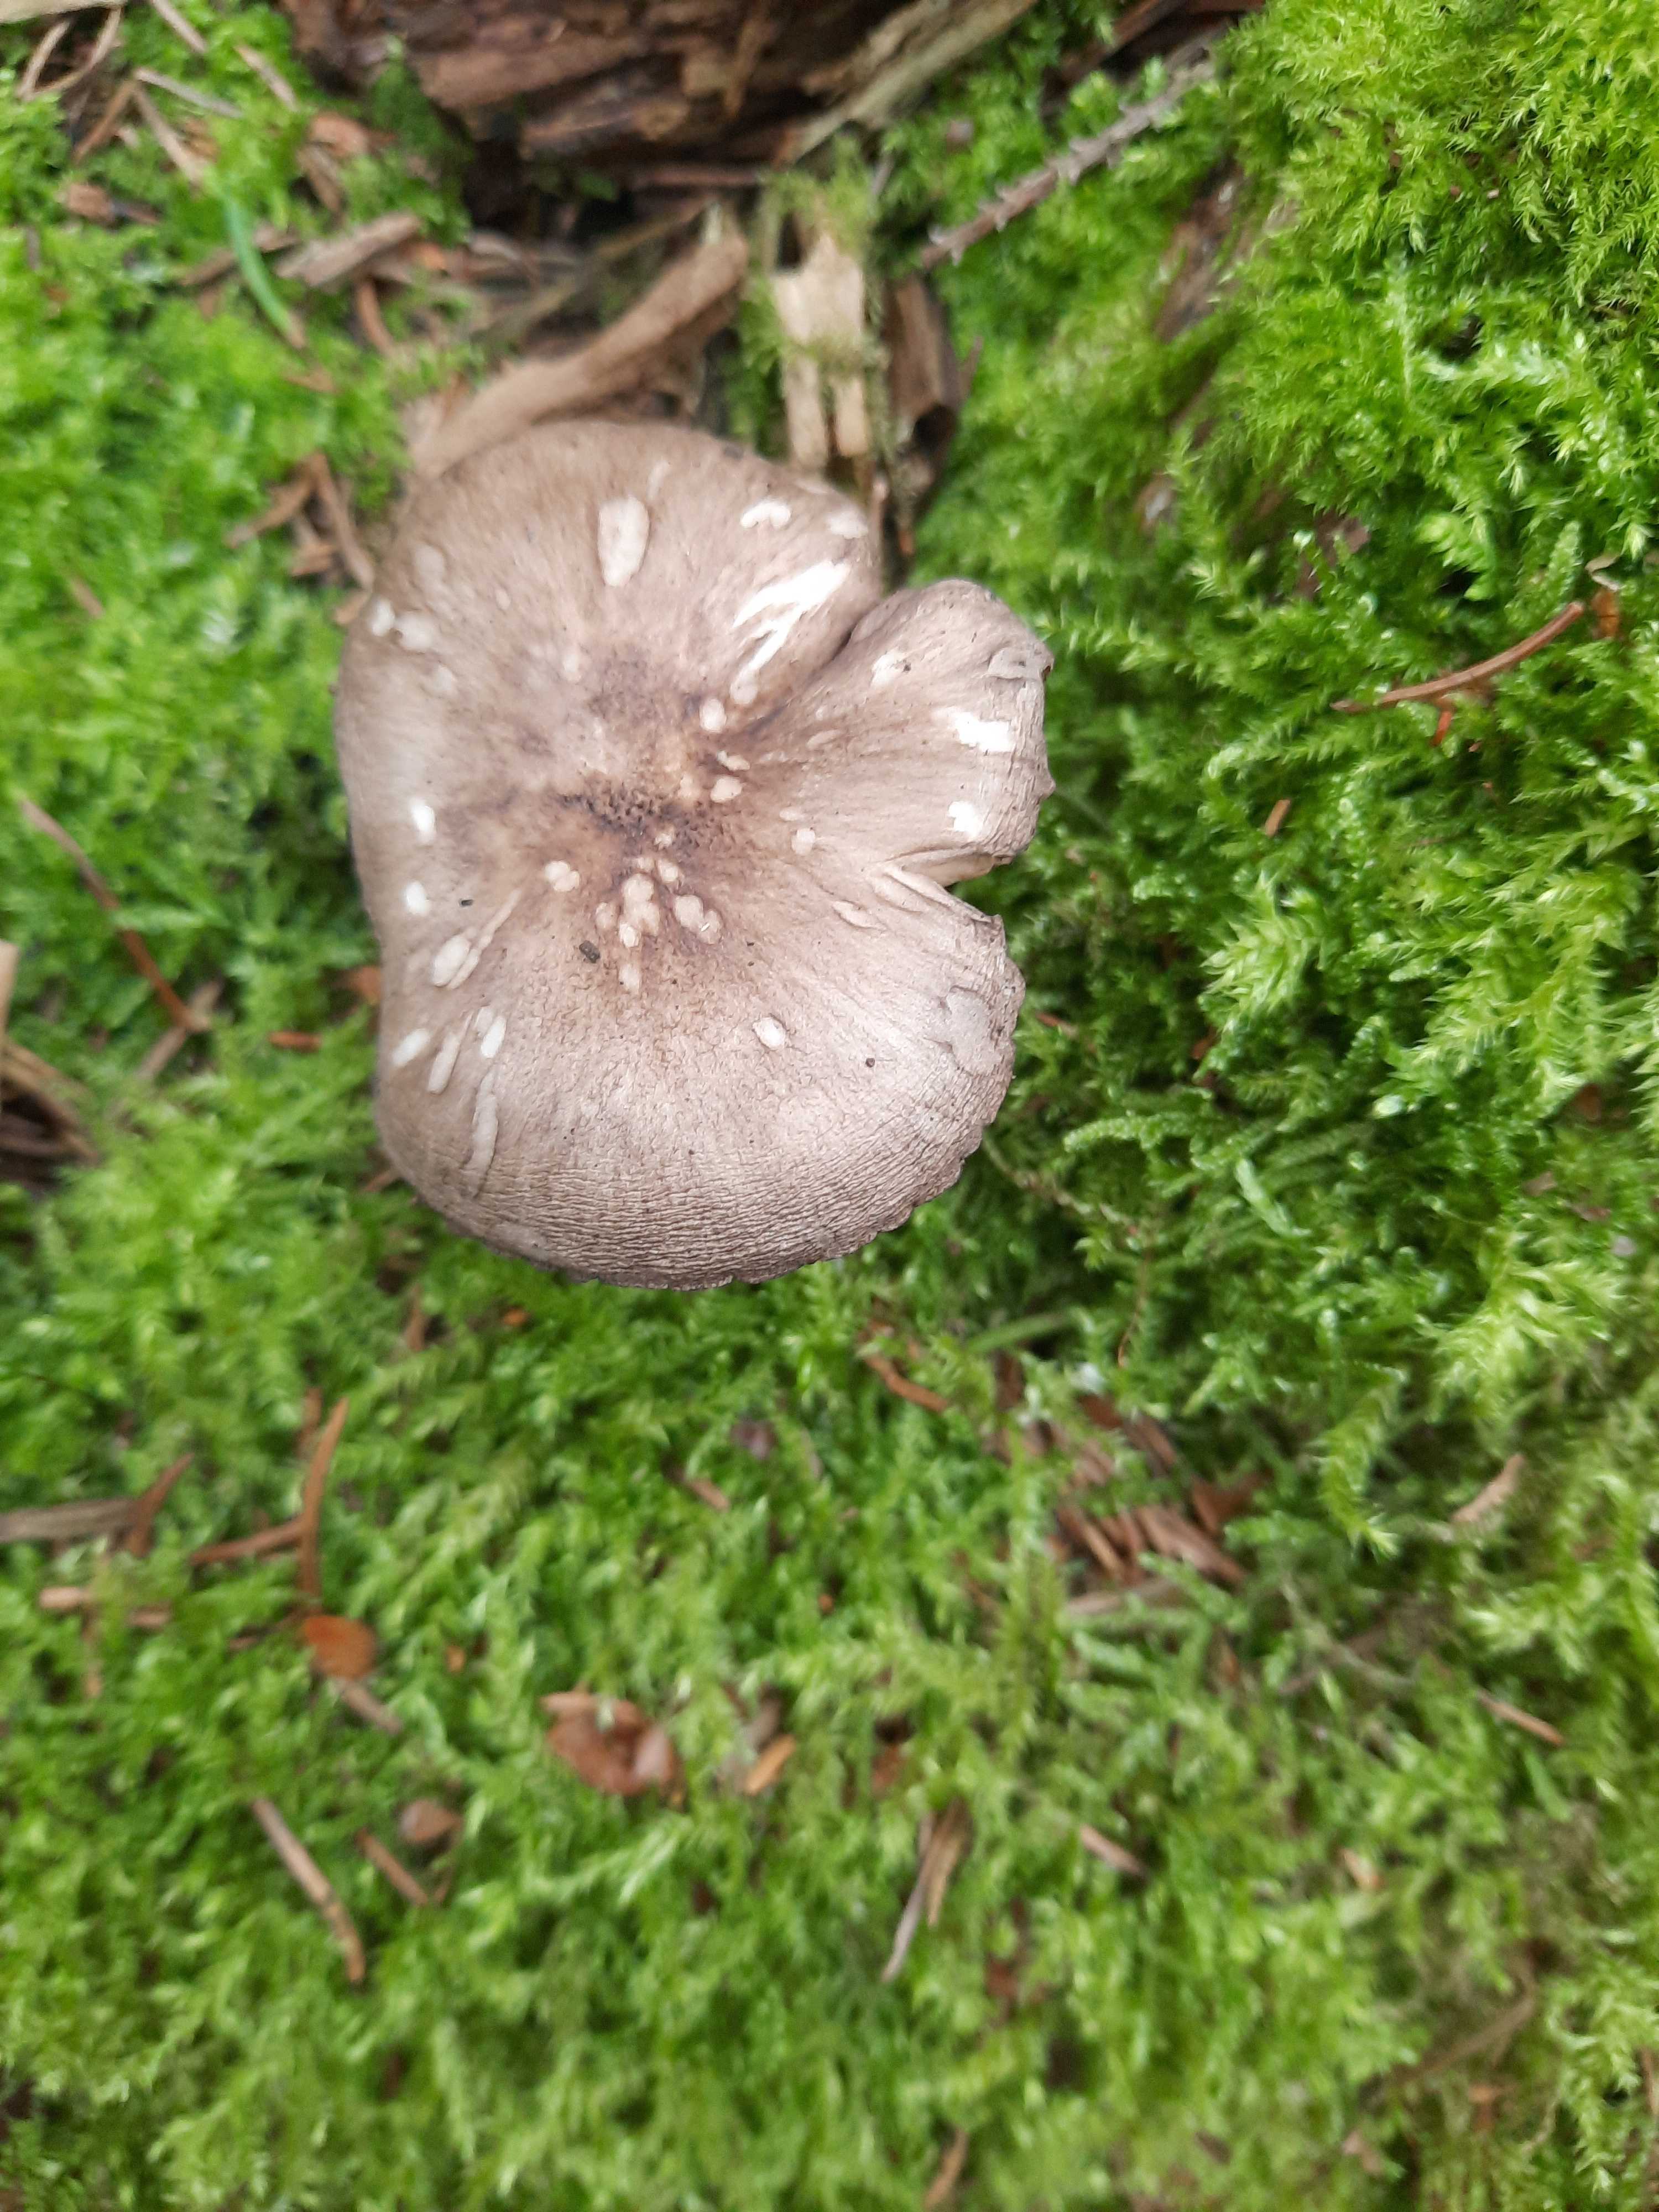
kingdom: Fungi
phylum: Basidiomycota
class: Agaricomycetes
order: Agaricales
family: Tricholomataceae
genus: Megacollybia
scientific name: Megacollybia platyphylla
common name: bredbladet væbnerhat
